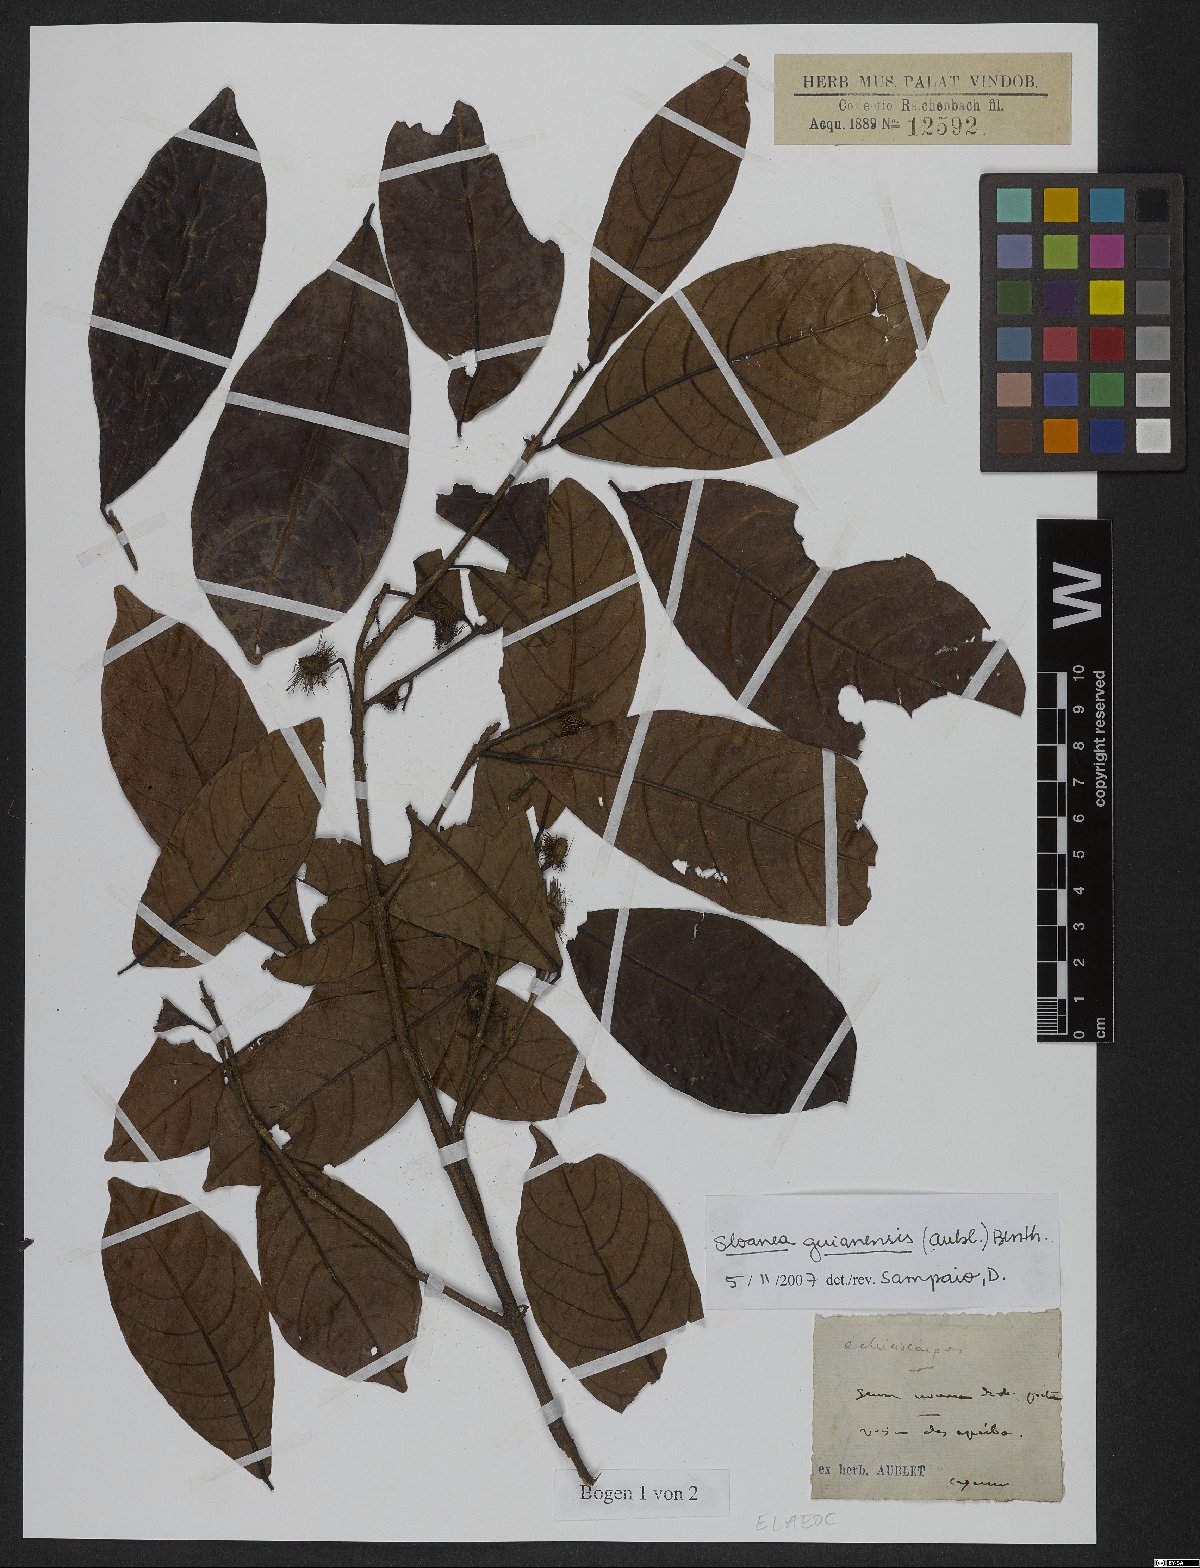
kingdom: Plantae
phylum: Tracheophyta
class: Magnoliopsida
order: Oxalidales
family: Elaeocarpaceae
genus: Sloanea
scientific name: Sloanea guianensis
